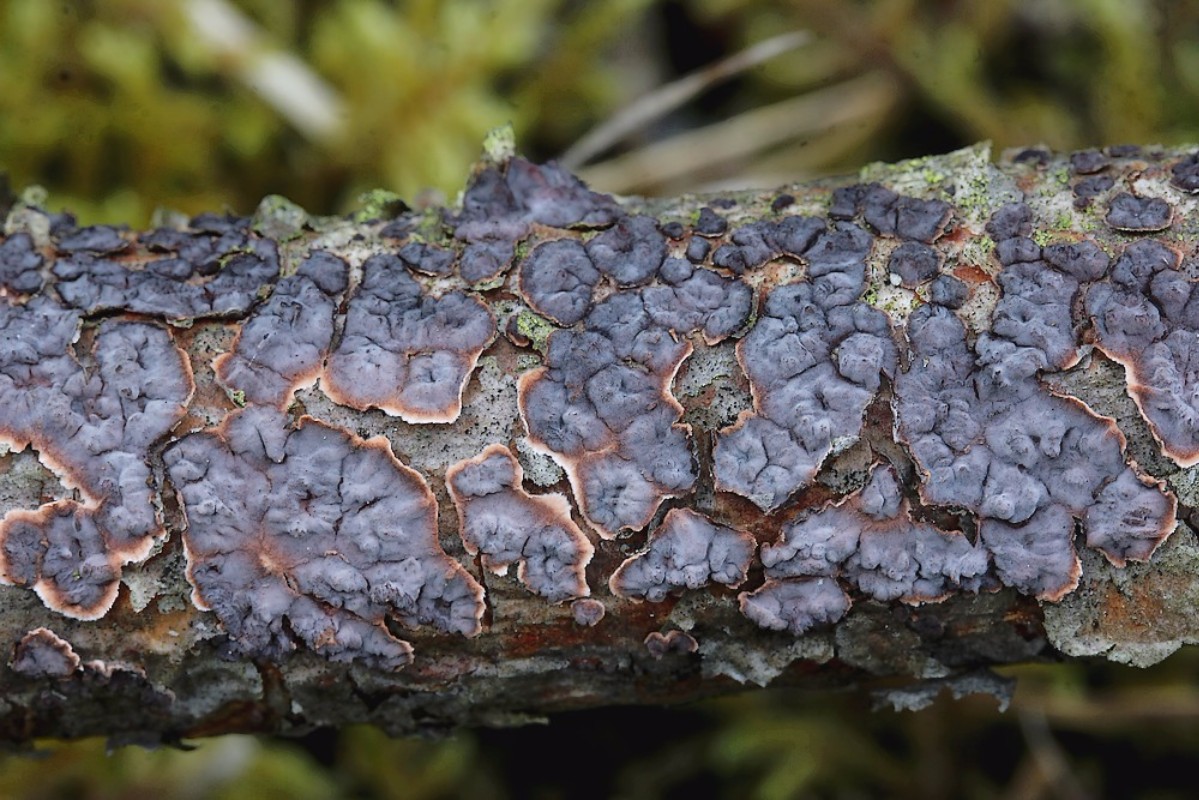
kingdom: Fungi
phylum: Basidiomycota
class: Agaricomycetes
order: Russulales
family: Peniophoraceae
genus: Peniophora
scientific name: Peniophora pini
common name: fyrre-voksskind
